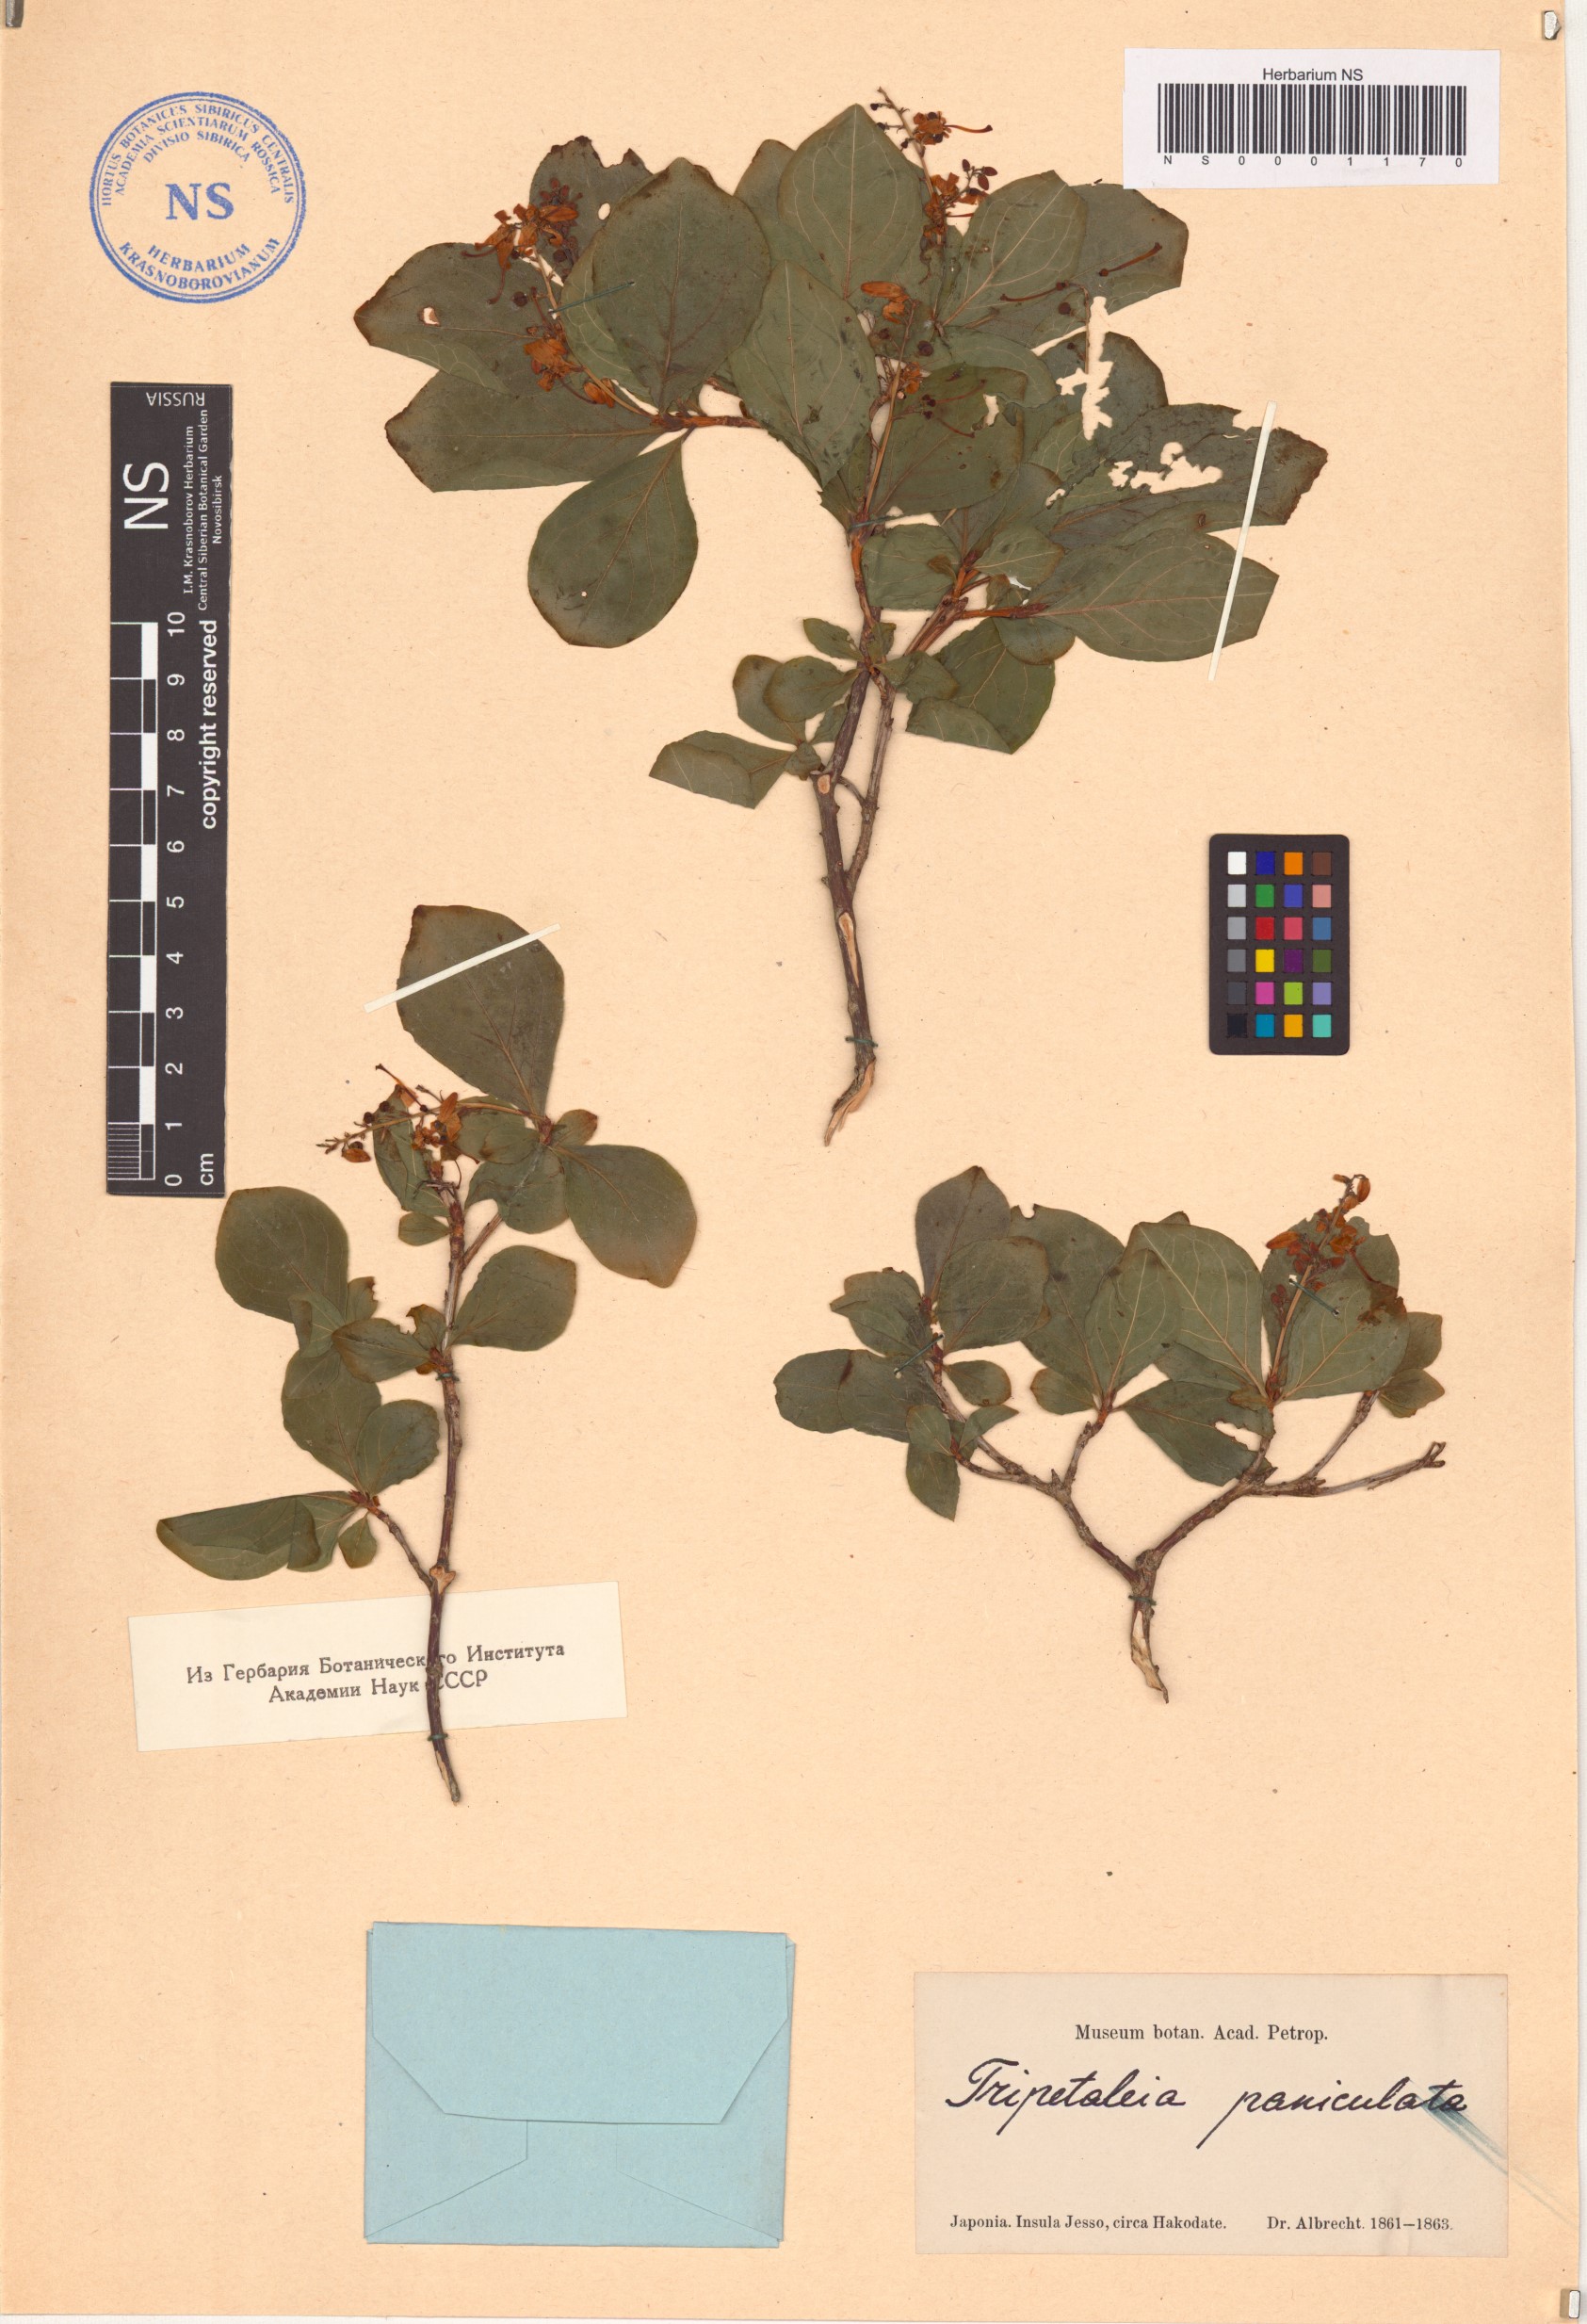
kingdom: Plantae
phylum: Tracheophyta
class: Magnoliopsida
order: Ericales
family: Ericaceae
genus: Elliottia
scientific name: Elliottia paniculata
